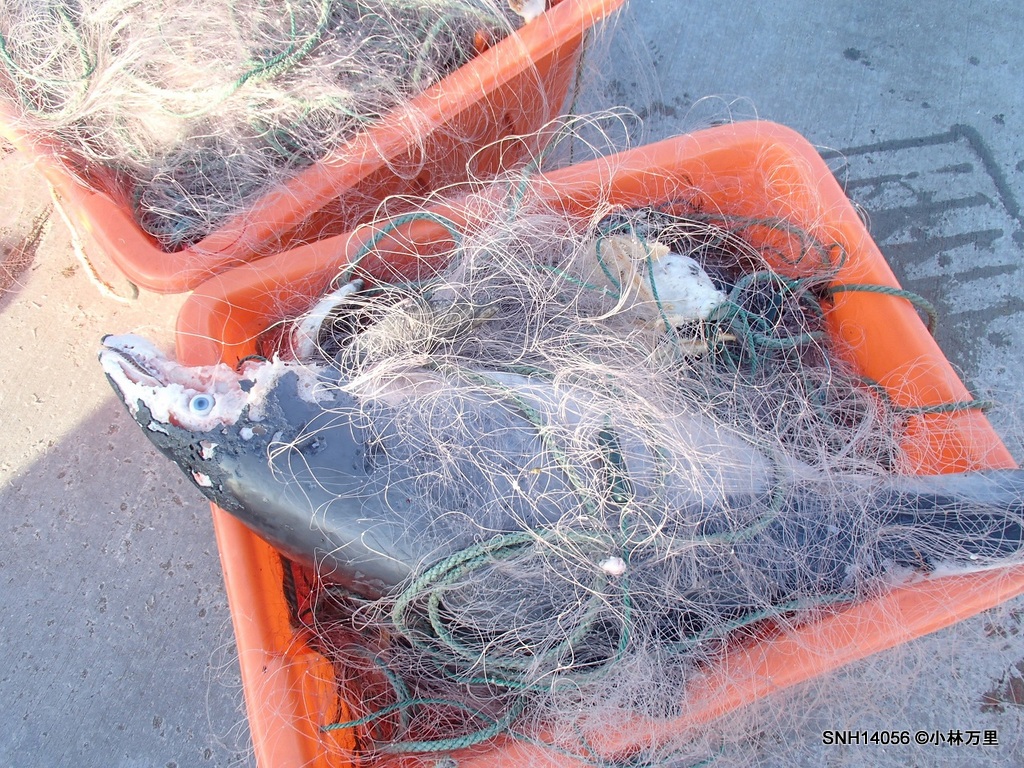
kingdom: Animalia
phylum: Chordata
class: Mammalia
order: Cetacea
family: Phocoenidae
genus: Phocoena
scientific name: Phocoena phocoena
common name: Harbour porpoise
